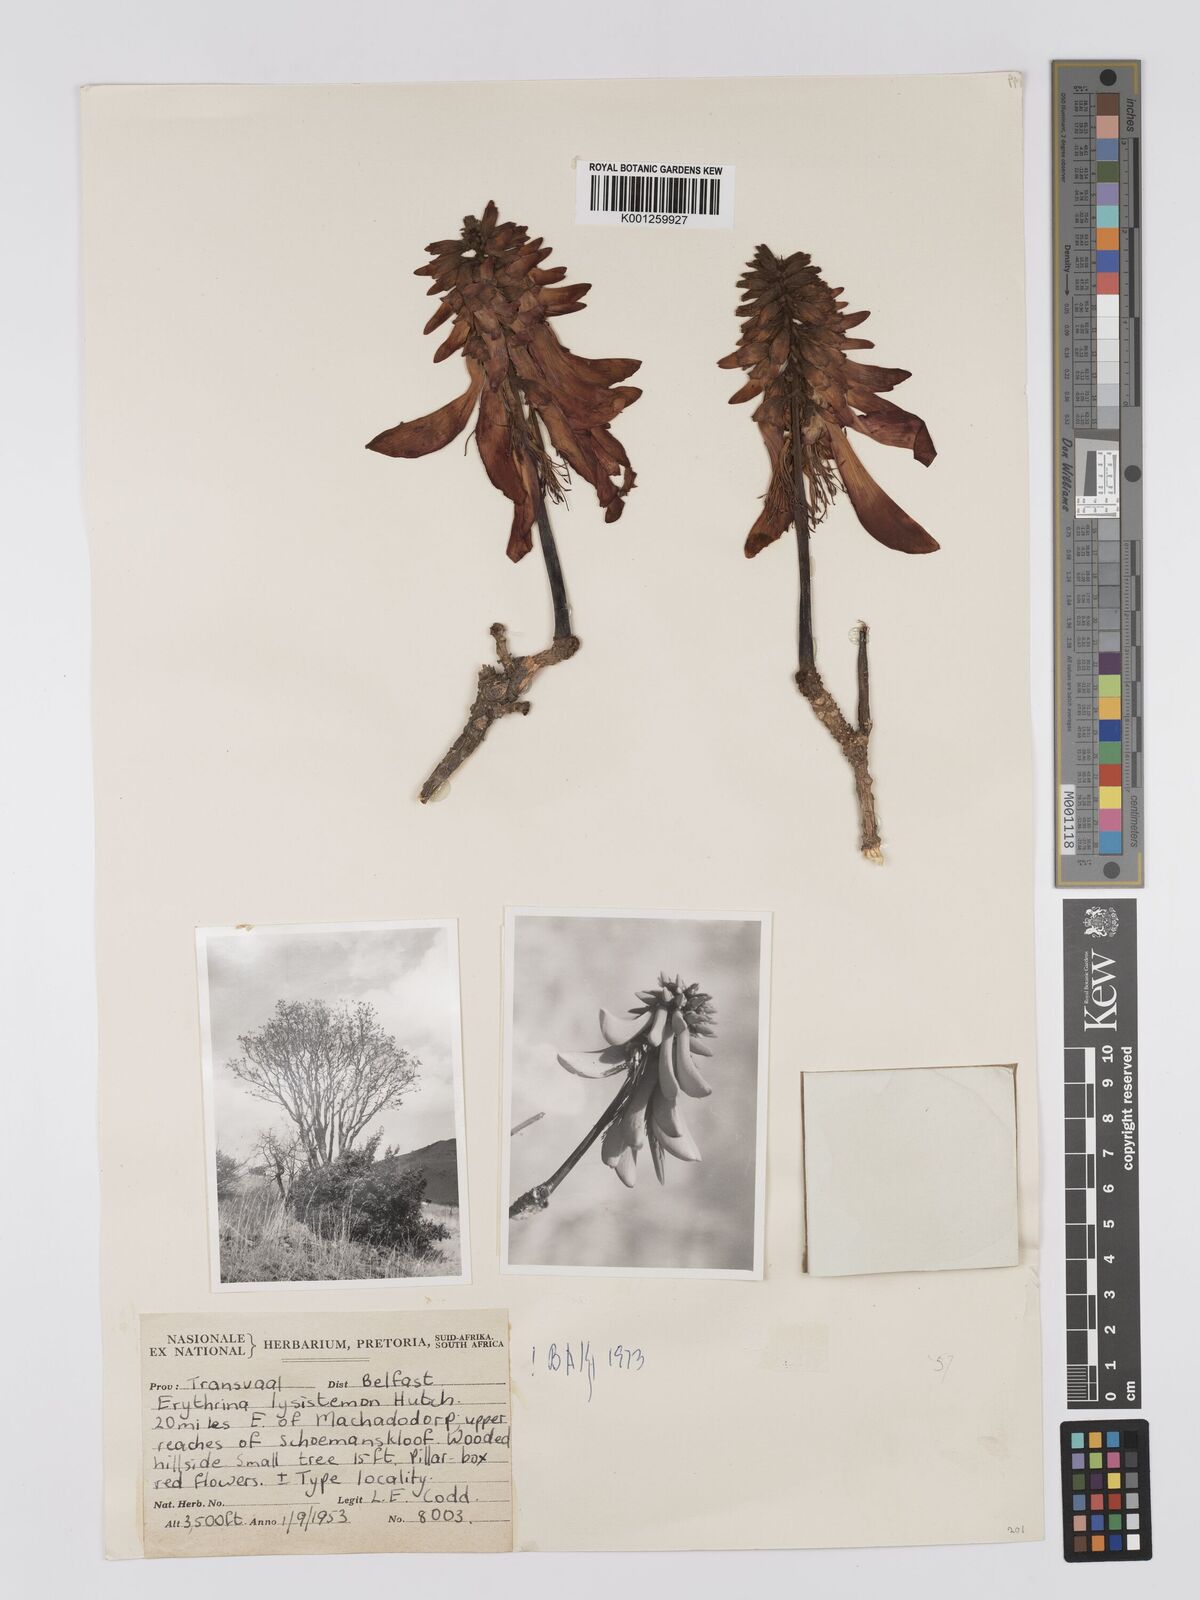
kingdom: Plantae
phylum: Tracheophyta
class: Magnoliopsida
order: Fabales
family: Fabaceae
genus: Erythrina
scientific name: Erythrina lysistemon
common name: Common coral tree
